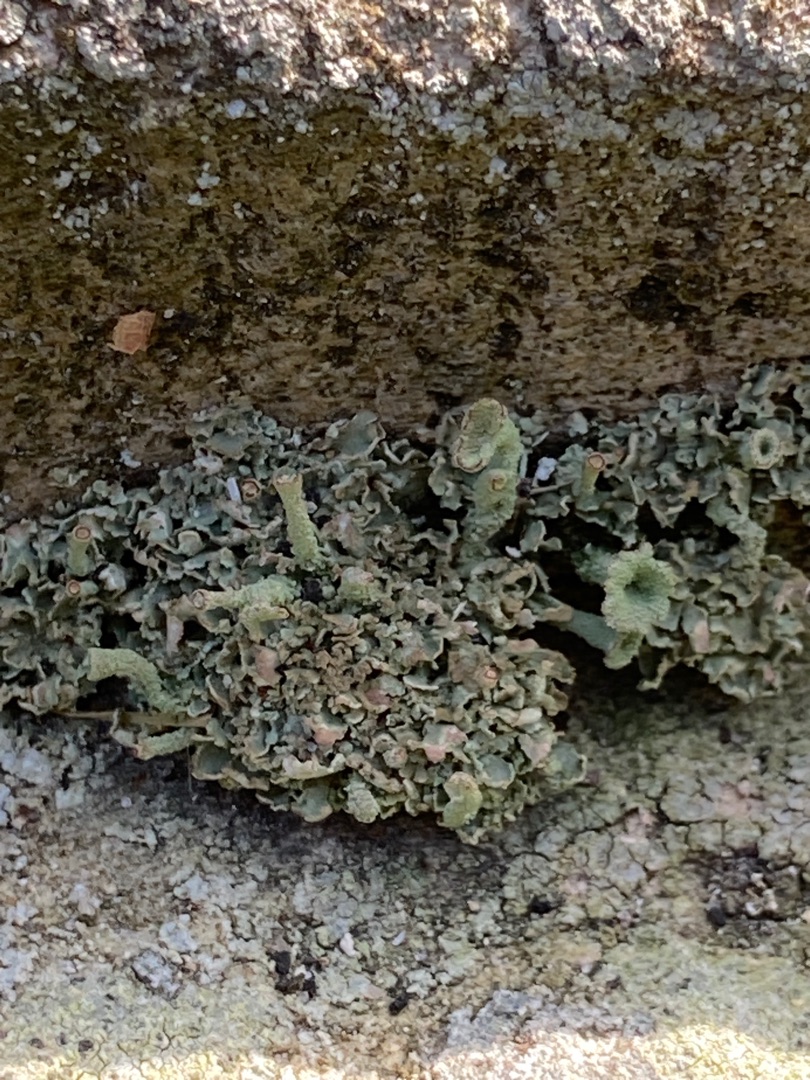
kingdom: Fungi
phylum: Ascomycota
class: Lecanoromycetes
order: Lecanorales
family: Cladoniaceae
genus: Cladonia
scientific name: Cladonia
